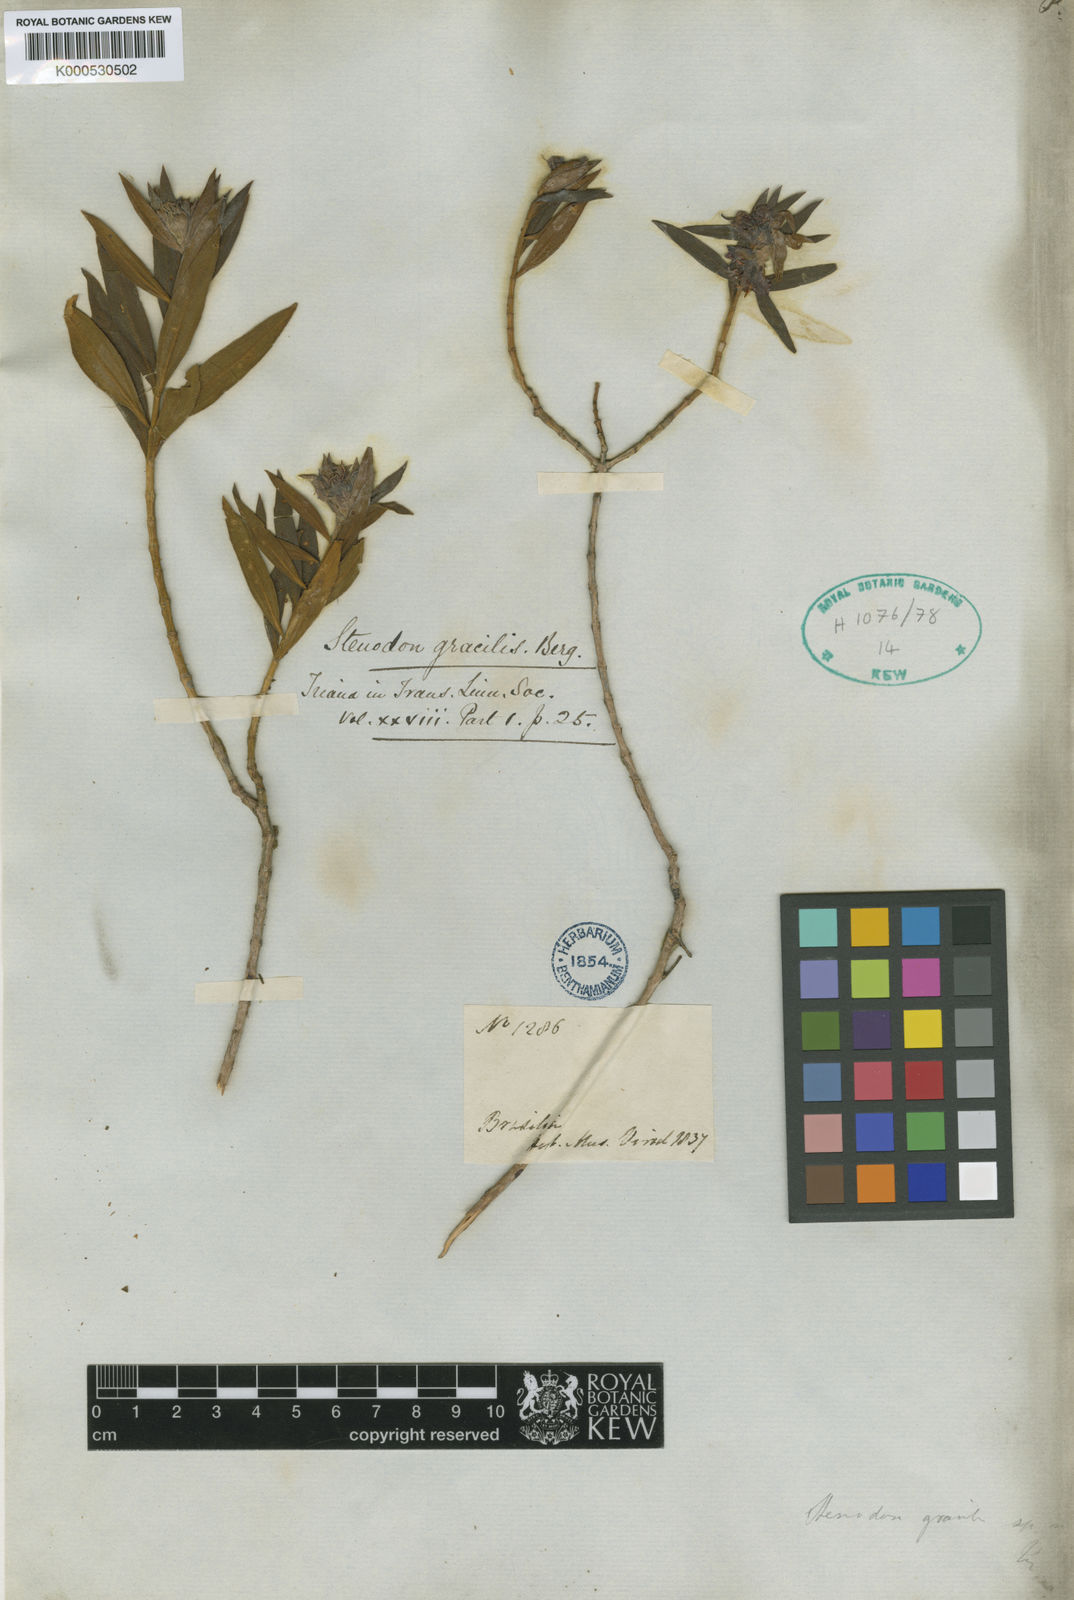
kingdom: Plantae
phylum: Tracheophyta
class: Magnoliopsida
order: Myrtales
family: Melastomataceae
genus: Microlicia
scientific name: Microlicia
